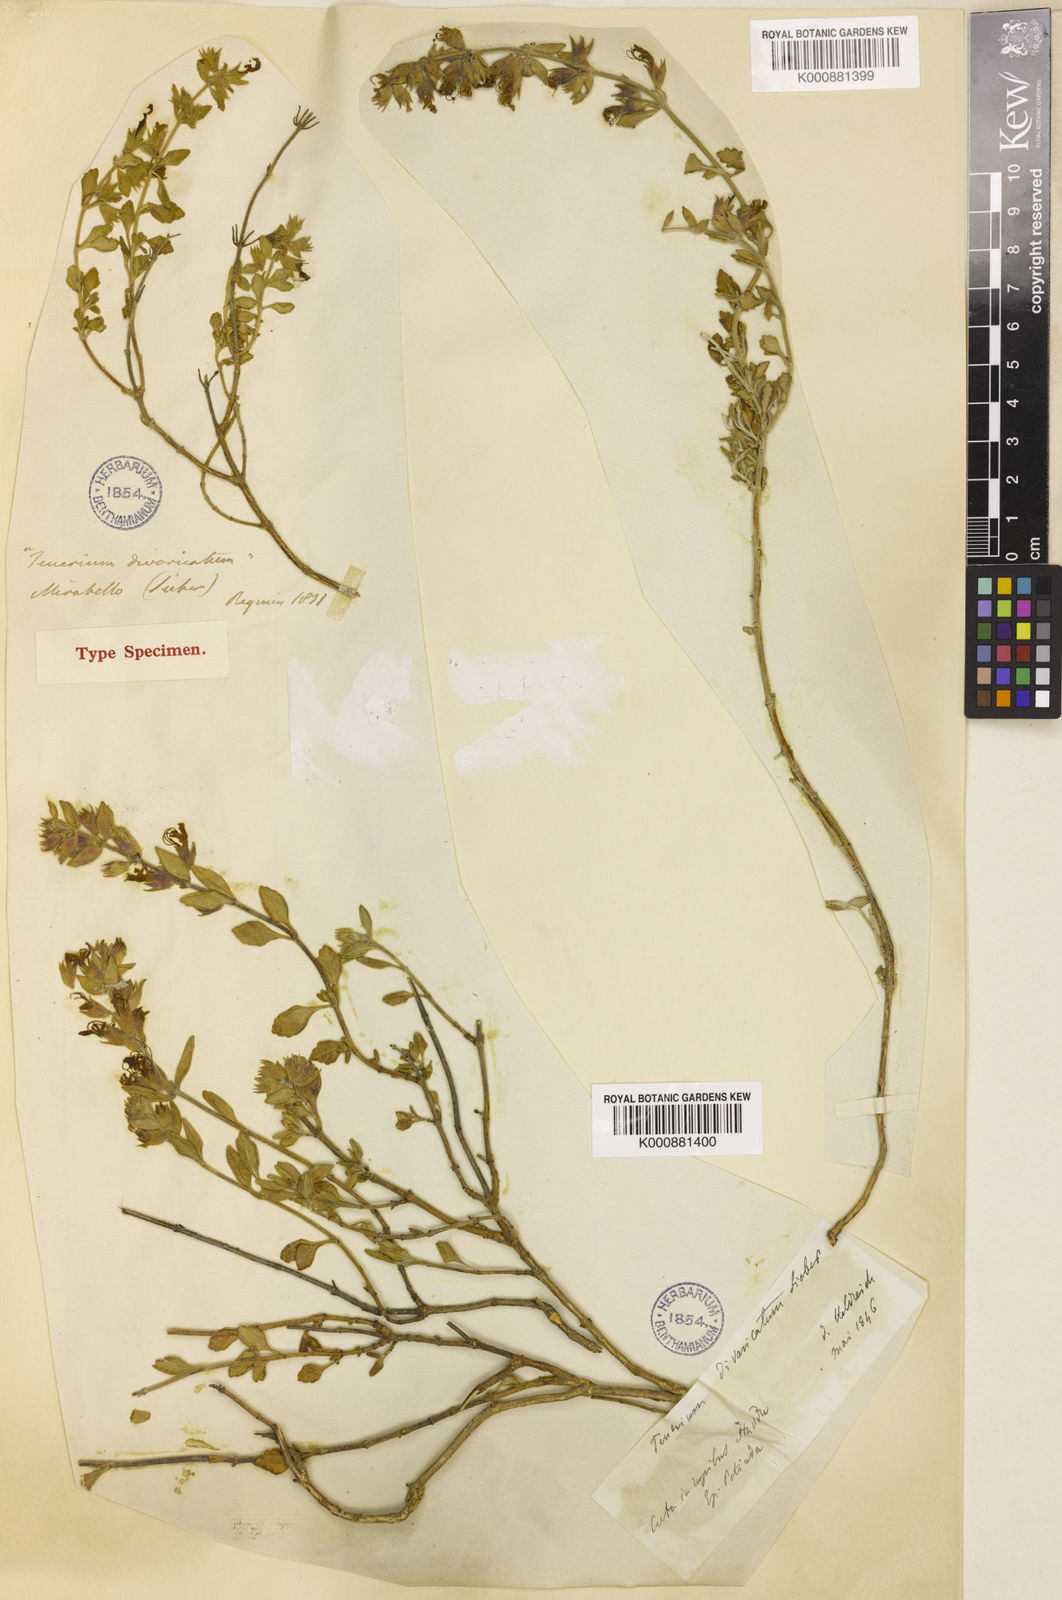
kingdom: Plantae
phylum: Tracheophyta
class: Magnoliopsida
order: Lamiales
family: Lamiaceae
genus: Teucrium
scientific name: Teucrium
